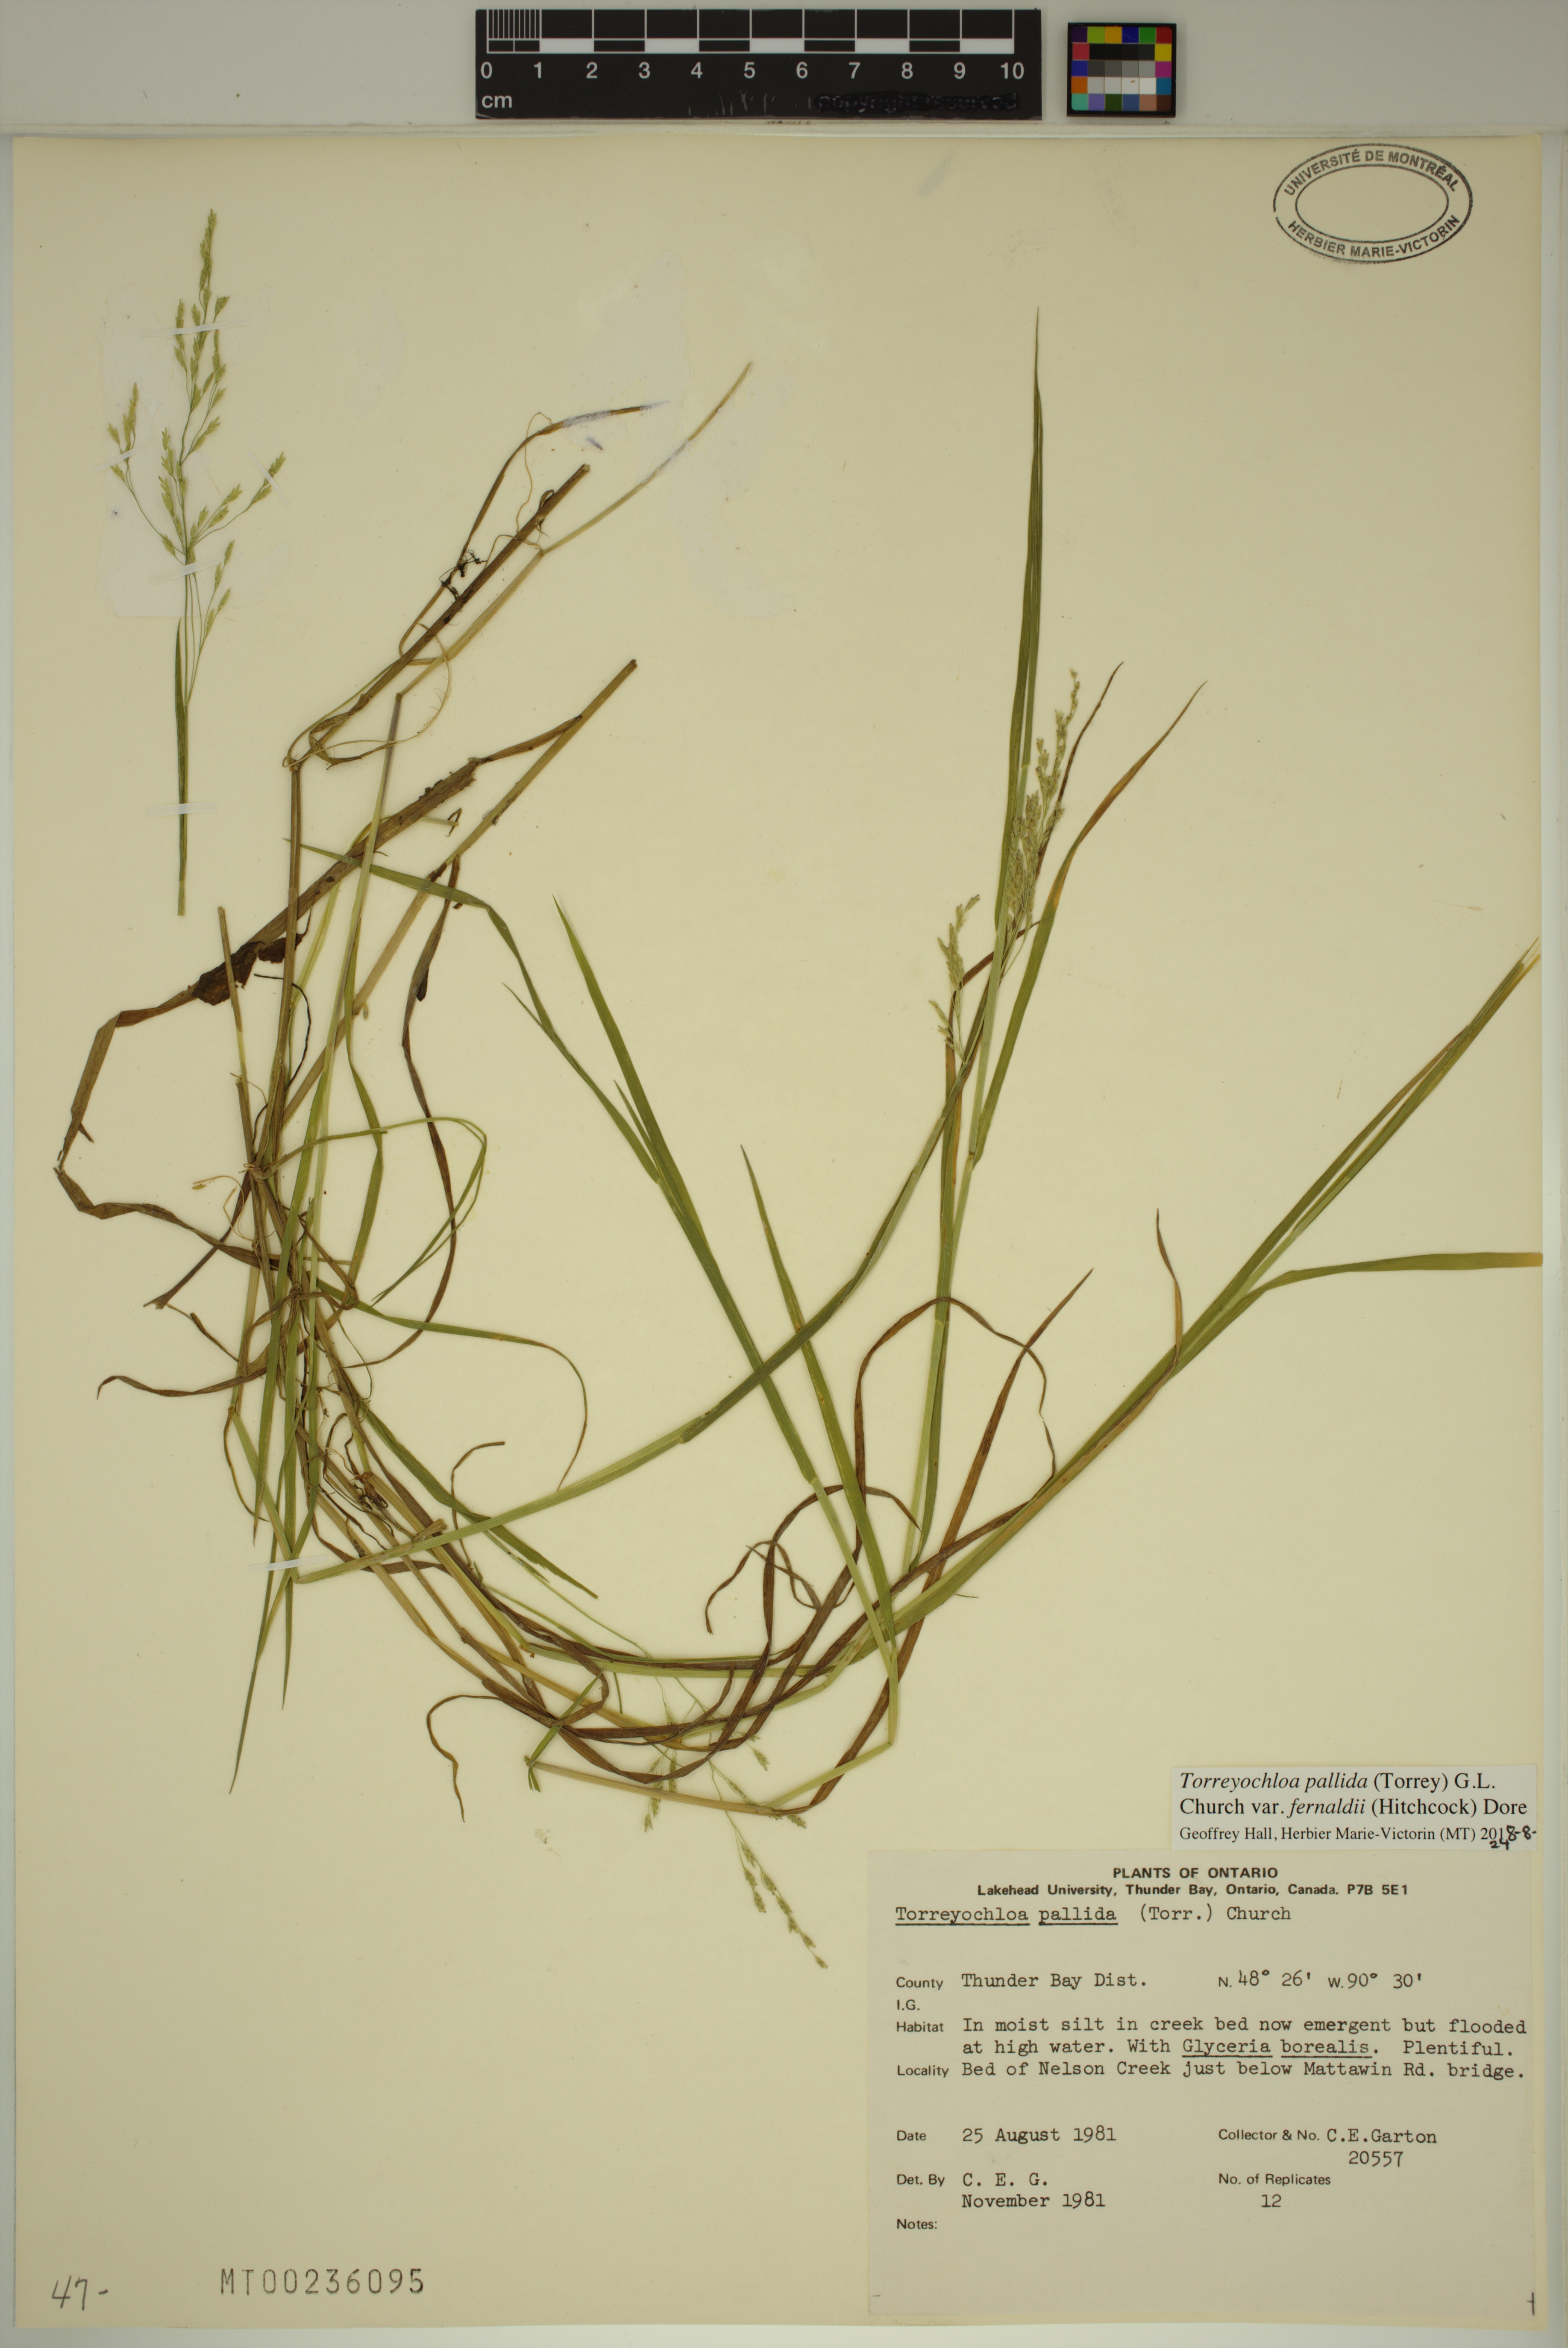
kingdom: Plantae
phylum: Tracheophyta
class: Liliopsida
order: Poales
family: Poaceae
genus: Torreyochloa
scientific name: Torreyochloa pallida
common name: Pale false mannagrass
